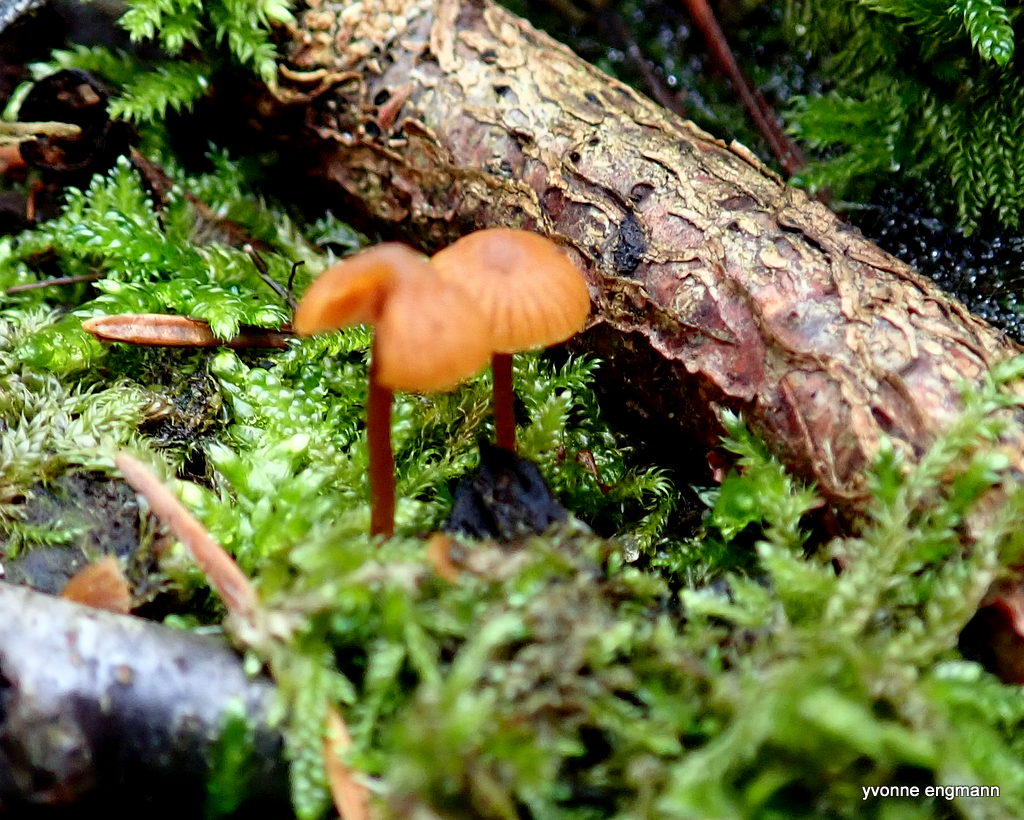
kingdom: Fungi
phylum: Basidiomycota
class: Agaricomycetes
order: Agaricales
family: Hymenogastraceae
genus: Galerina
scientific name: Galerina
